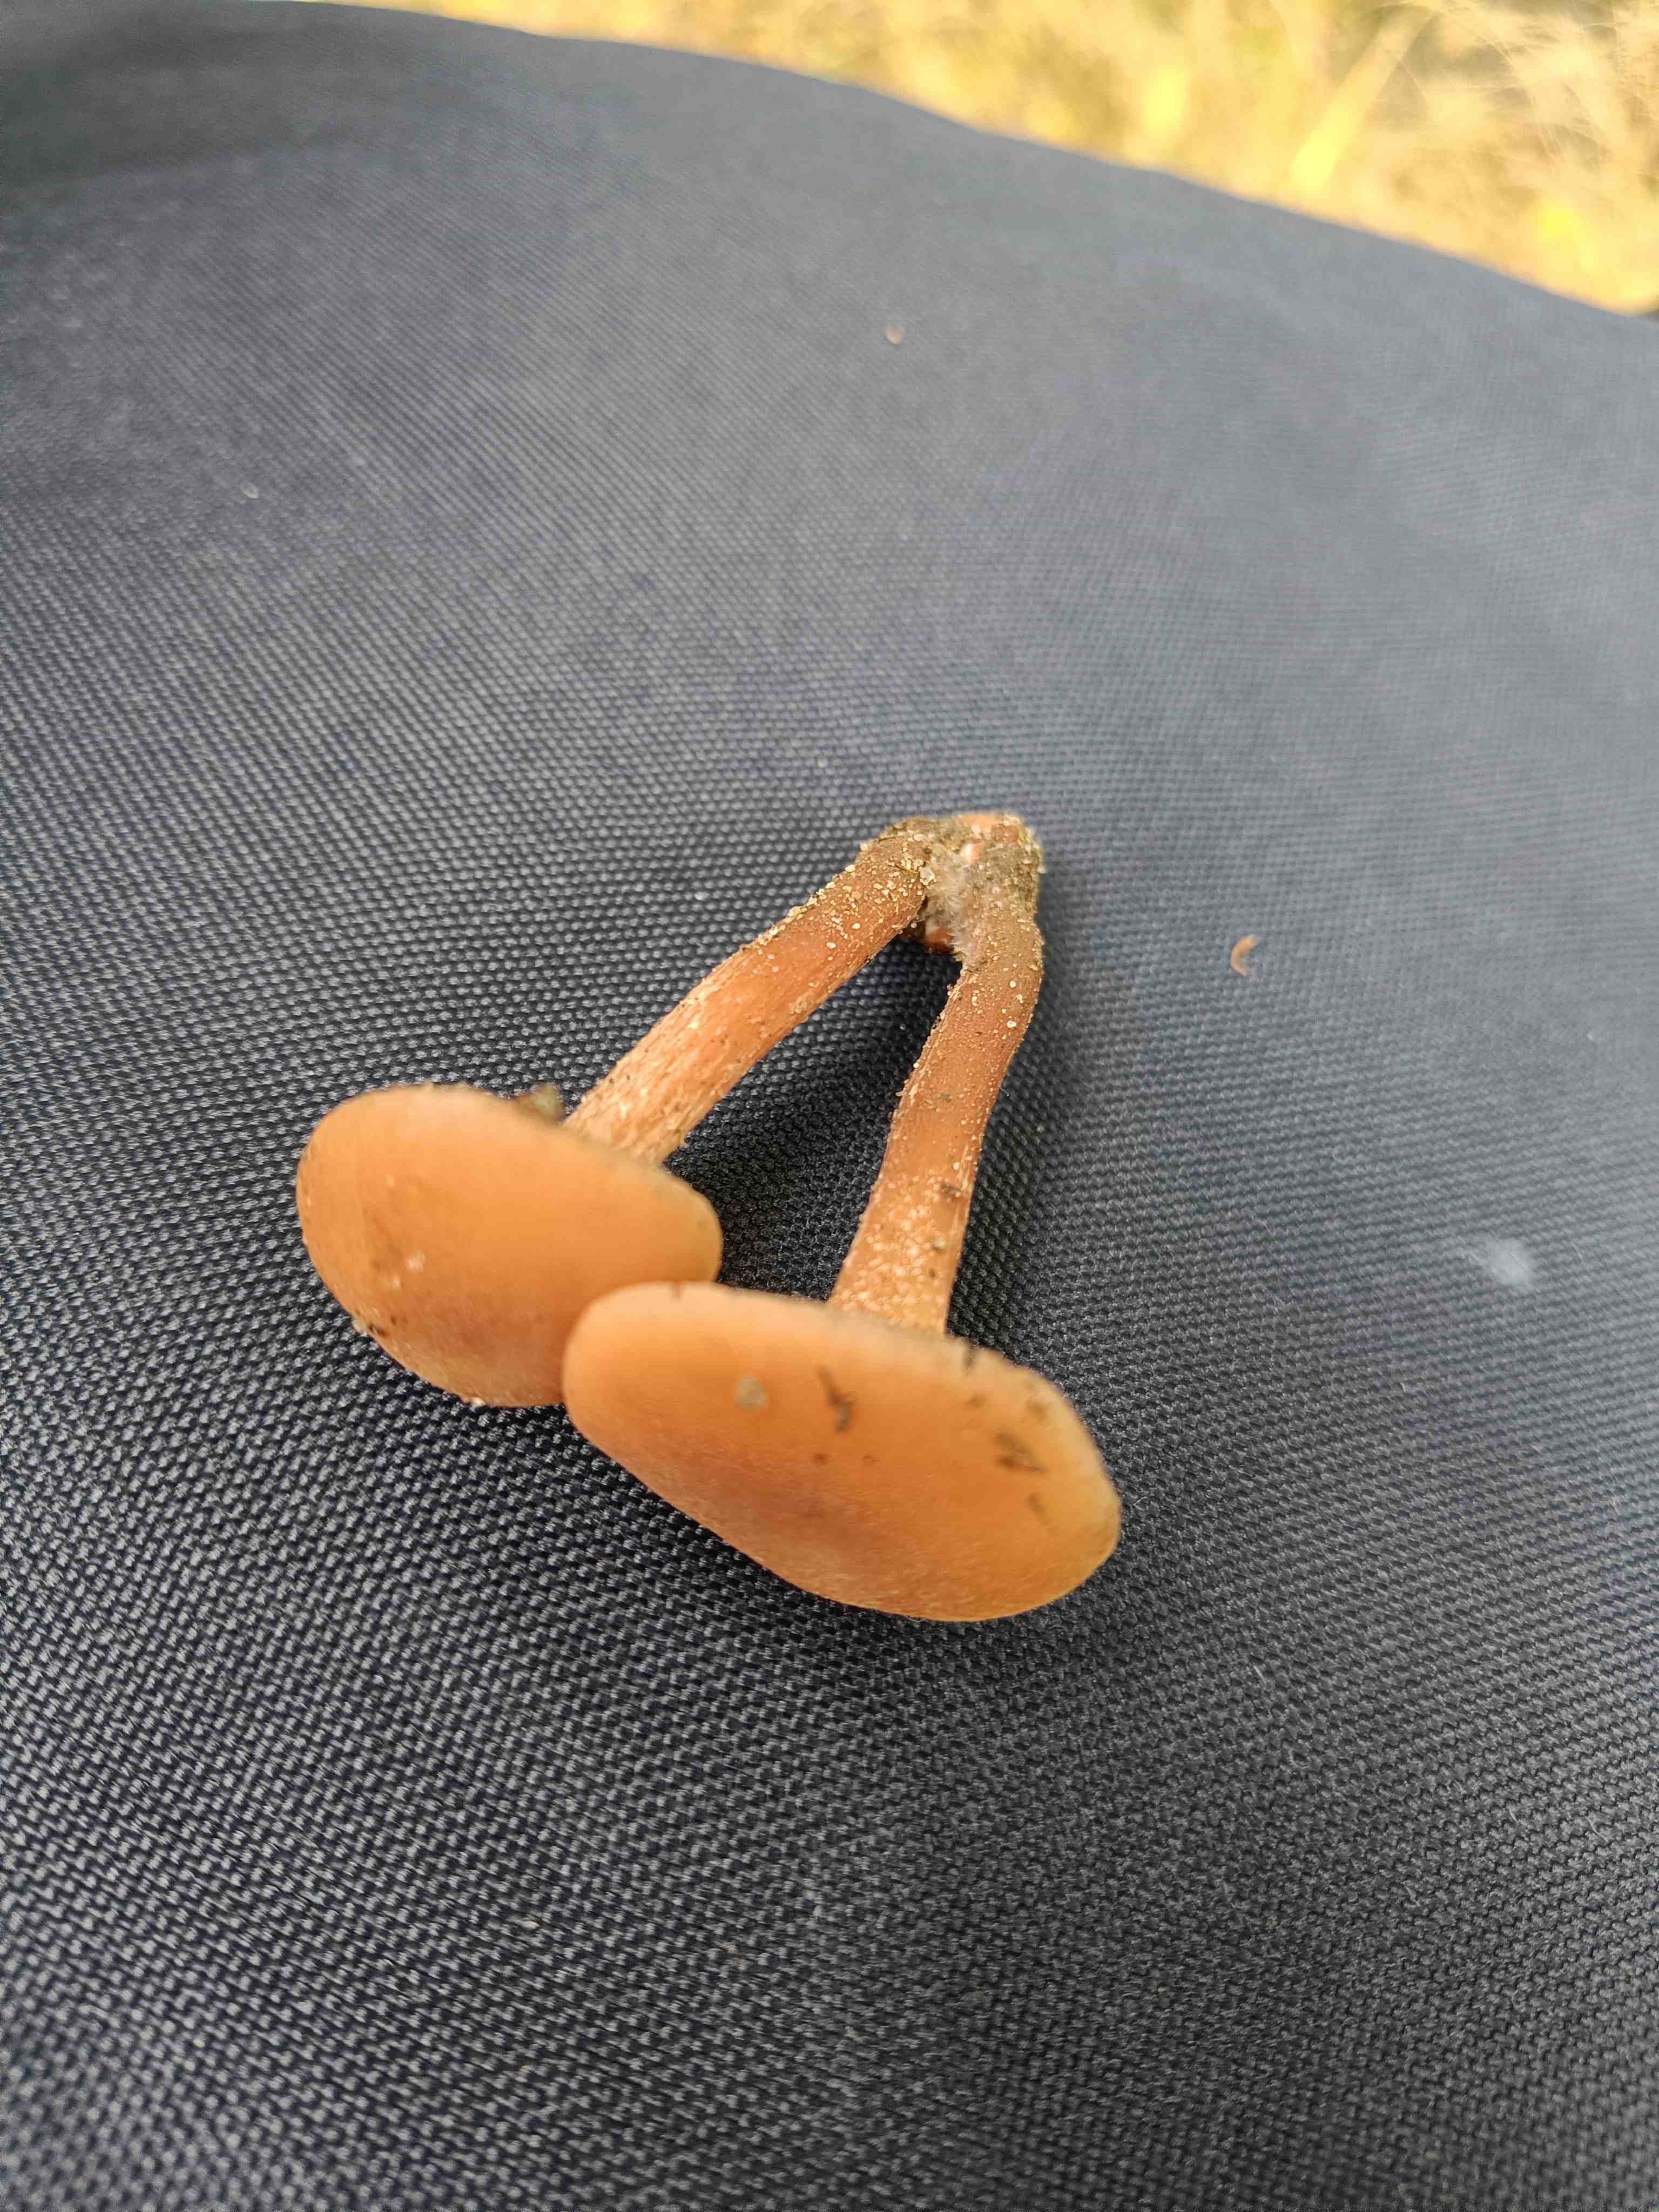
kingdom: Fungi
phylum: Basidiomycota
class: Agaricomycetes
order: Agaricales
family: Hydnangiaceae
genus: Laccaria
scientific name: Laccaria laccata
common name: rød ametysthat
